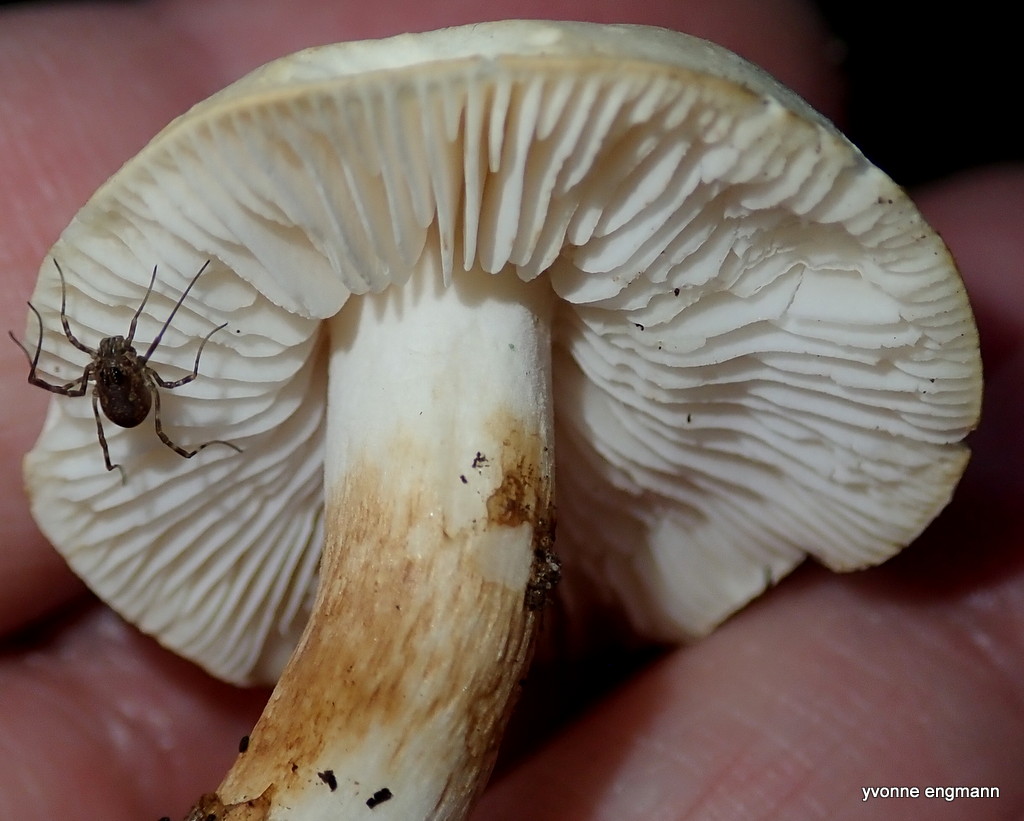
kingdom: Fungi
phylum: Basidiomycota
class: Agaricomycetes
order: Agaricales
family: Tricholomataceae
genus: Tricholoma
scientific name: Tricholoma album
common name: honning-ridderhat
